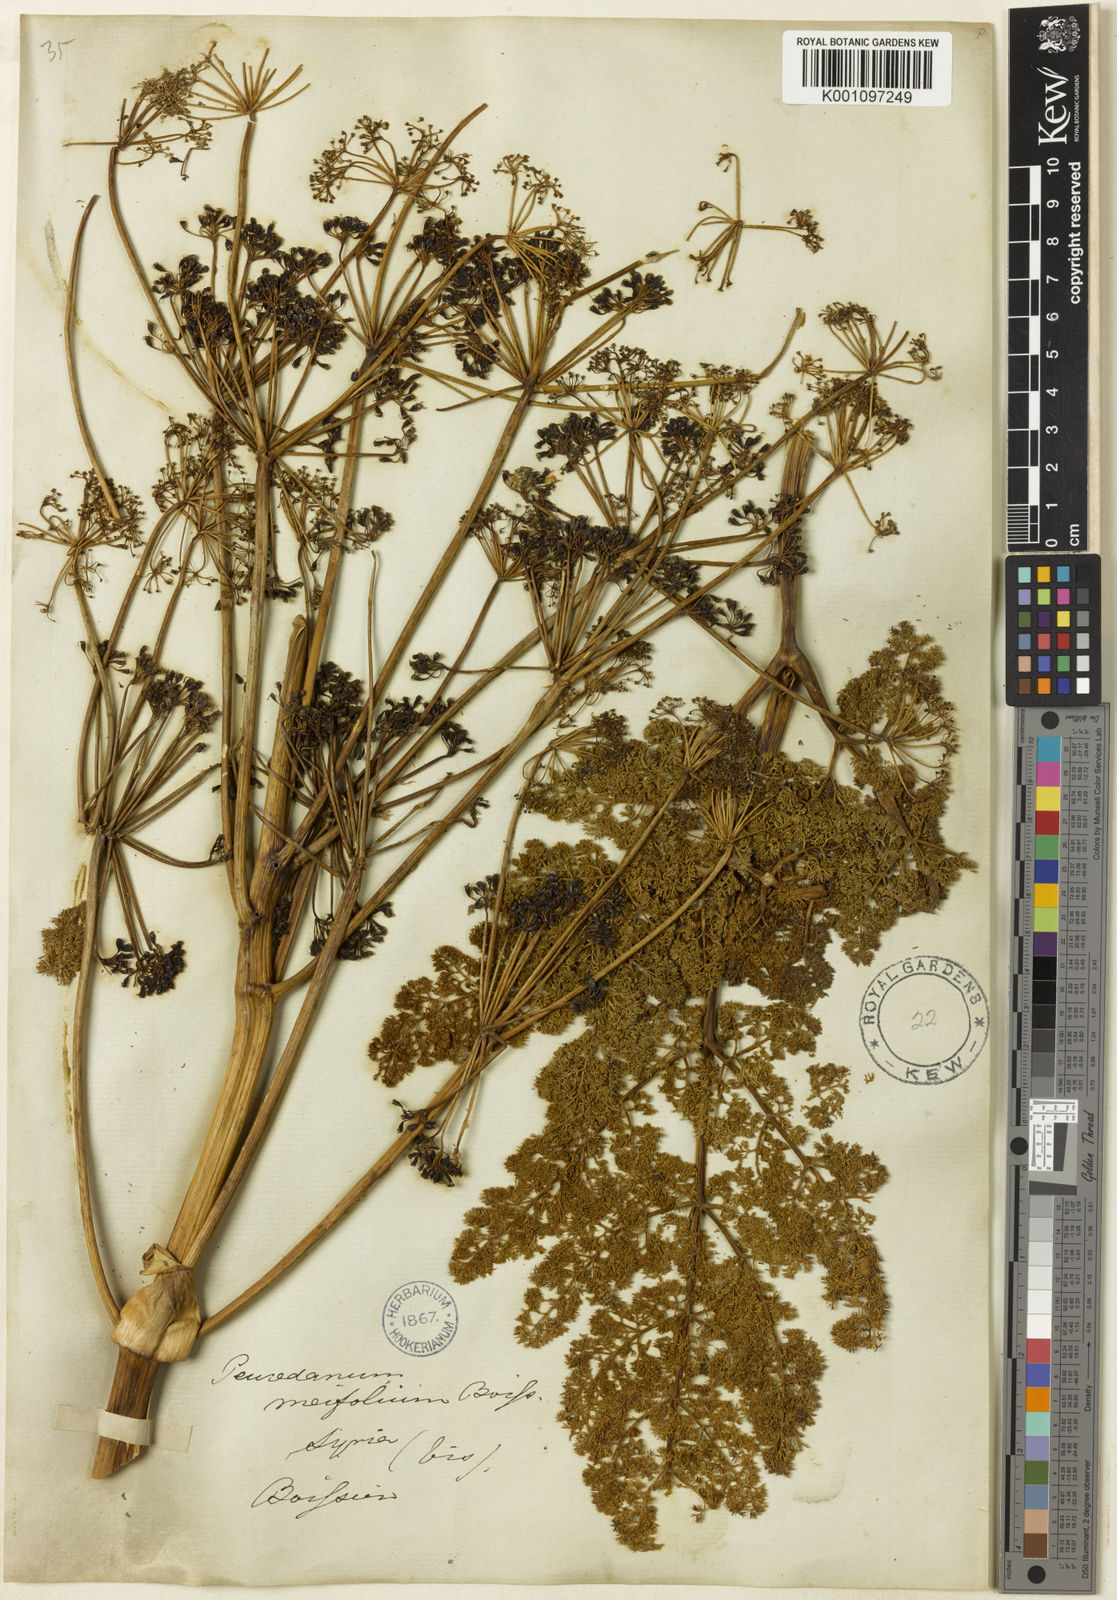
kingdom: Plantae
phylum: Tracheophyta
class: Magnoliopsida
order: Apiales
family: Apiaceae
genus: Ferula
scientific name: Ferula elaeochytris
